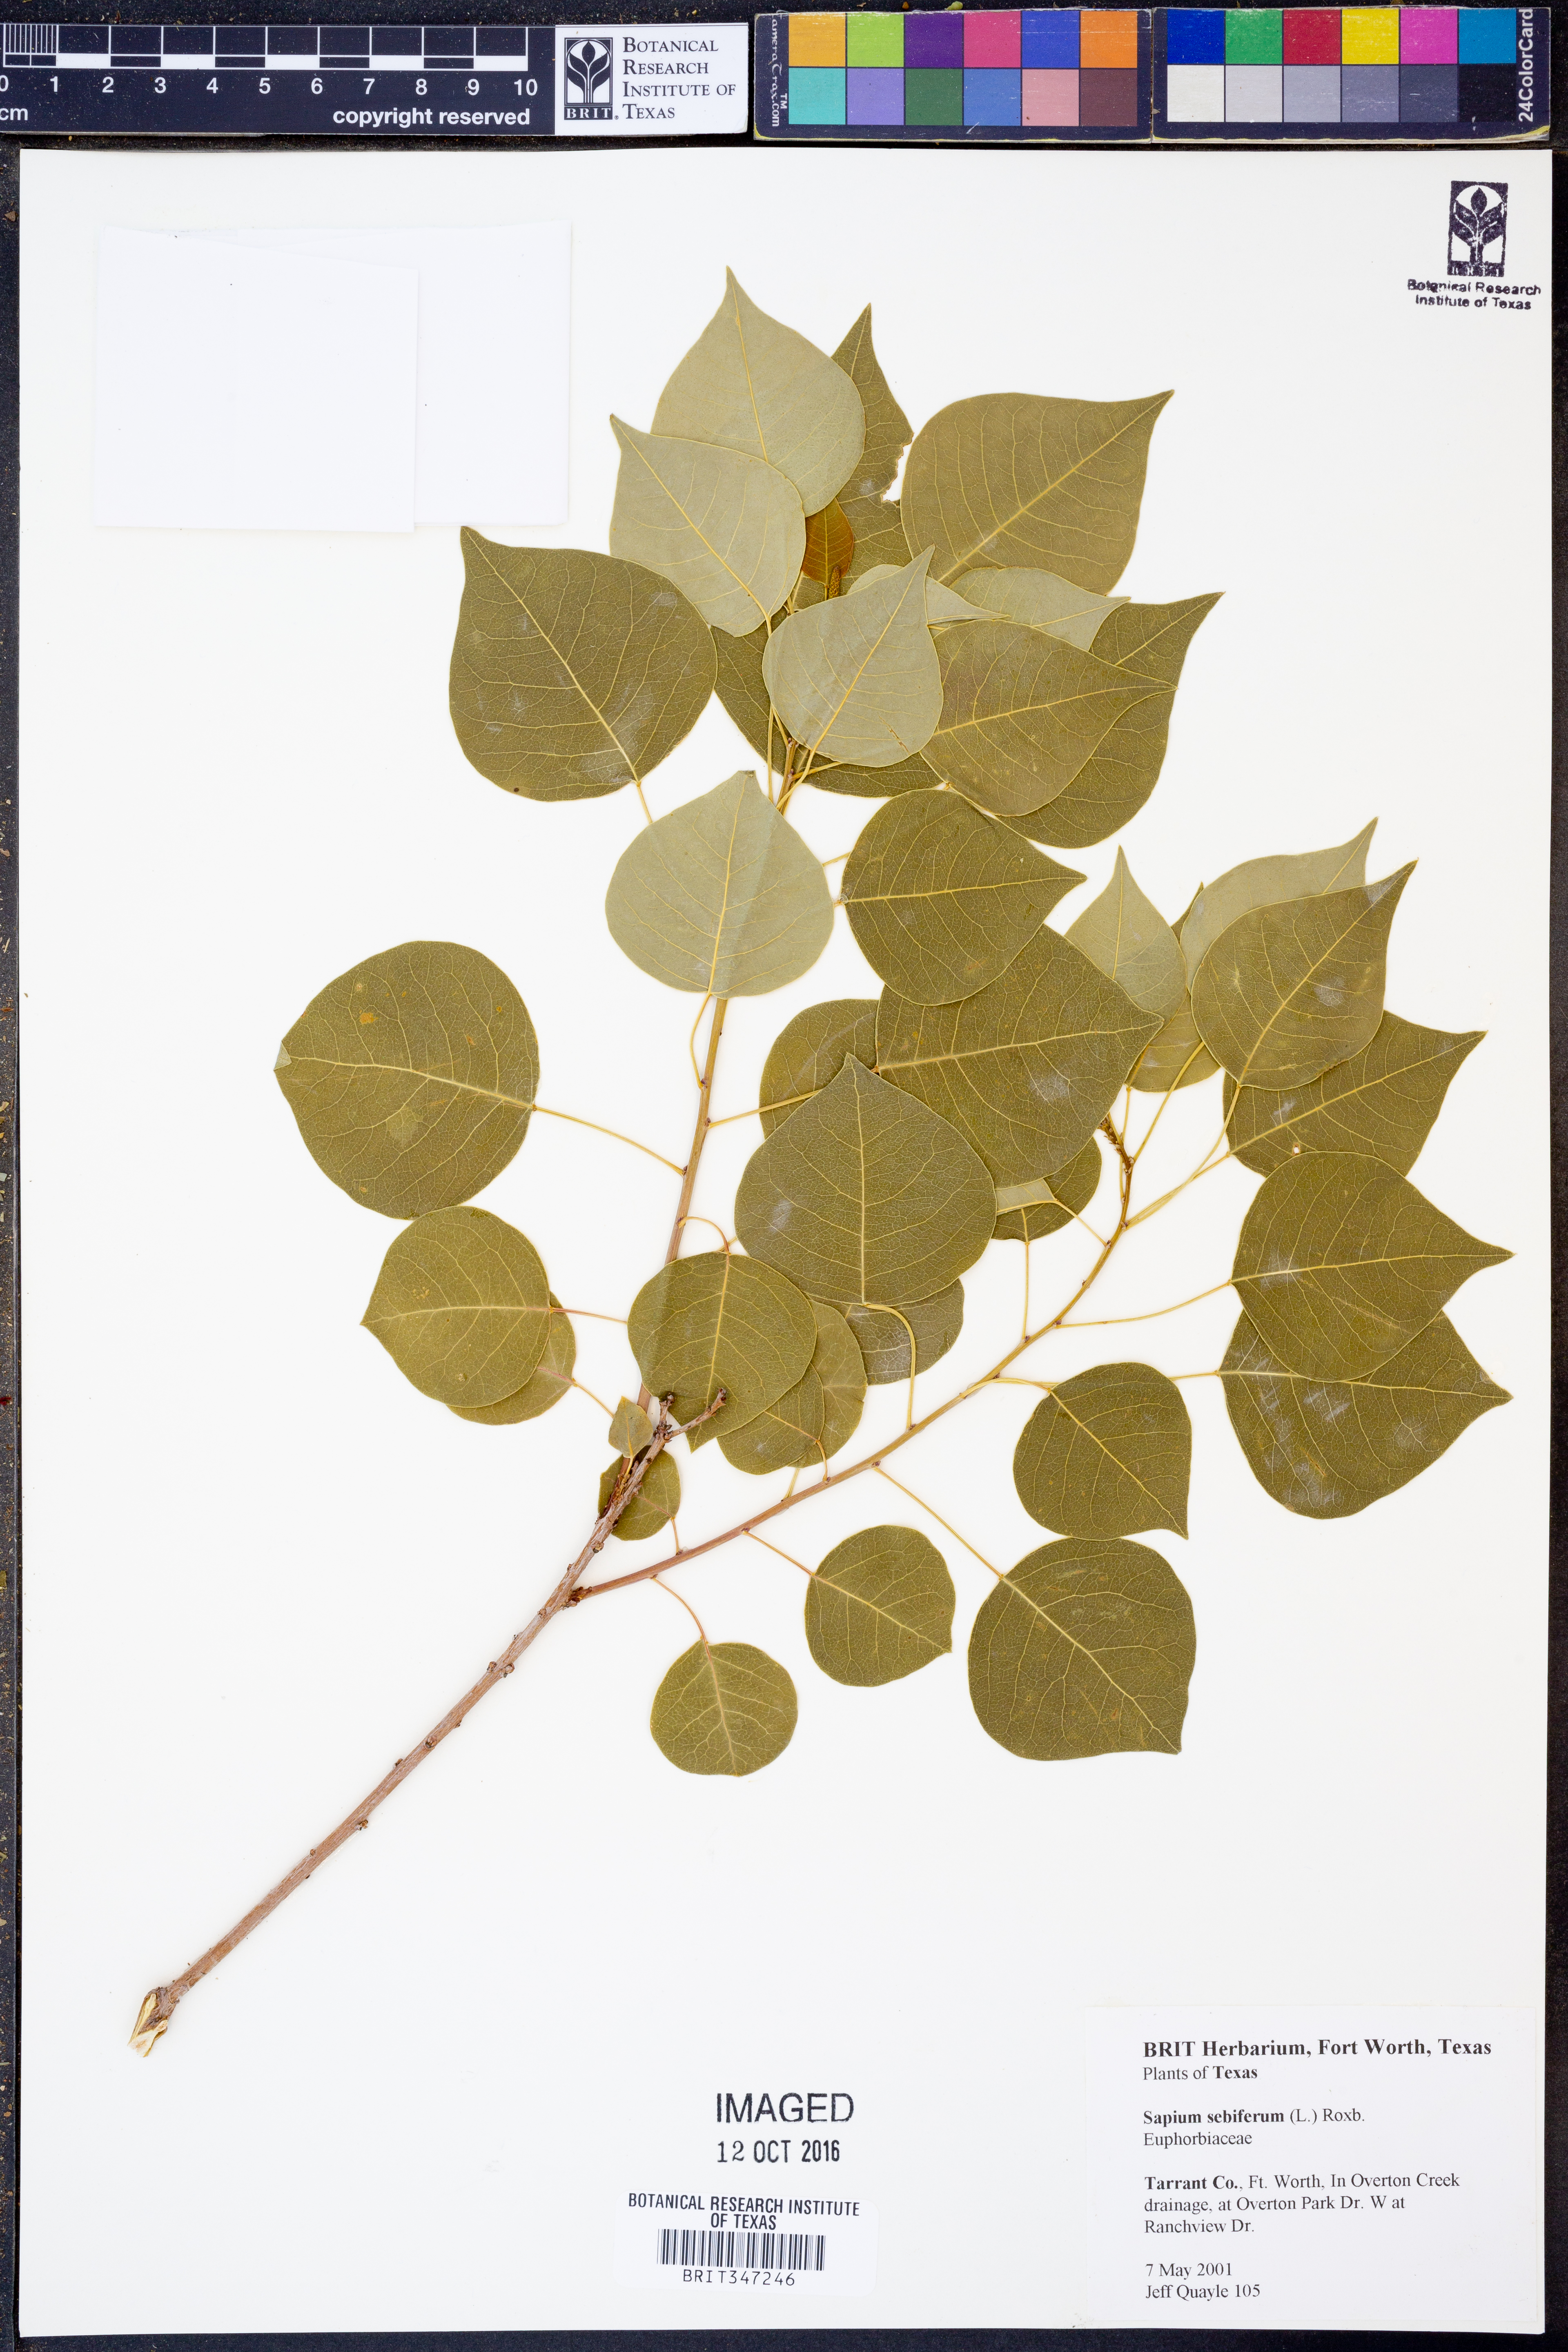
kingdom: Plantae
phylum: Tracheophyta
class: Magnoliopsida
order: Malpighiales
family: Euphorbiaceae
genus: Triadica
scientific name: Triadica sebifera
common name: Chinese tallow
